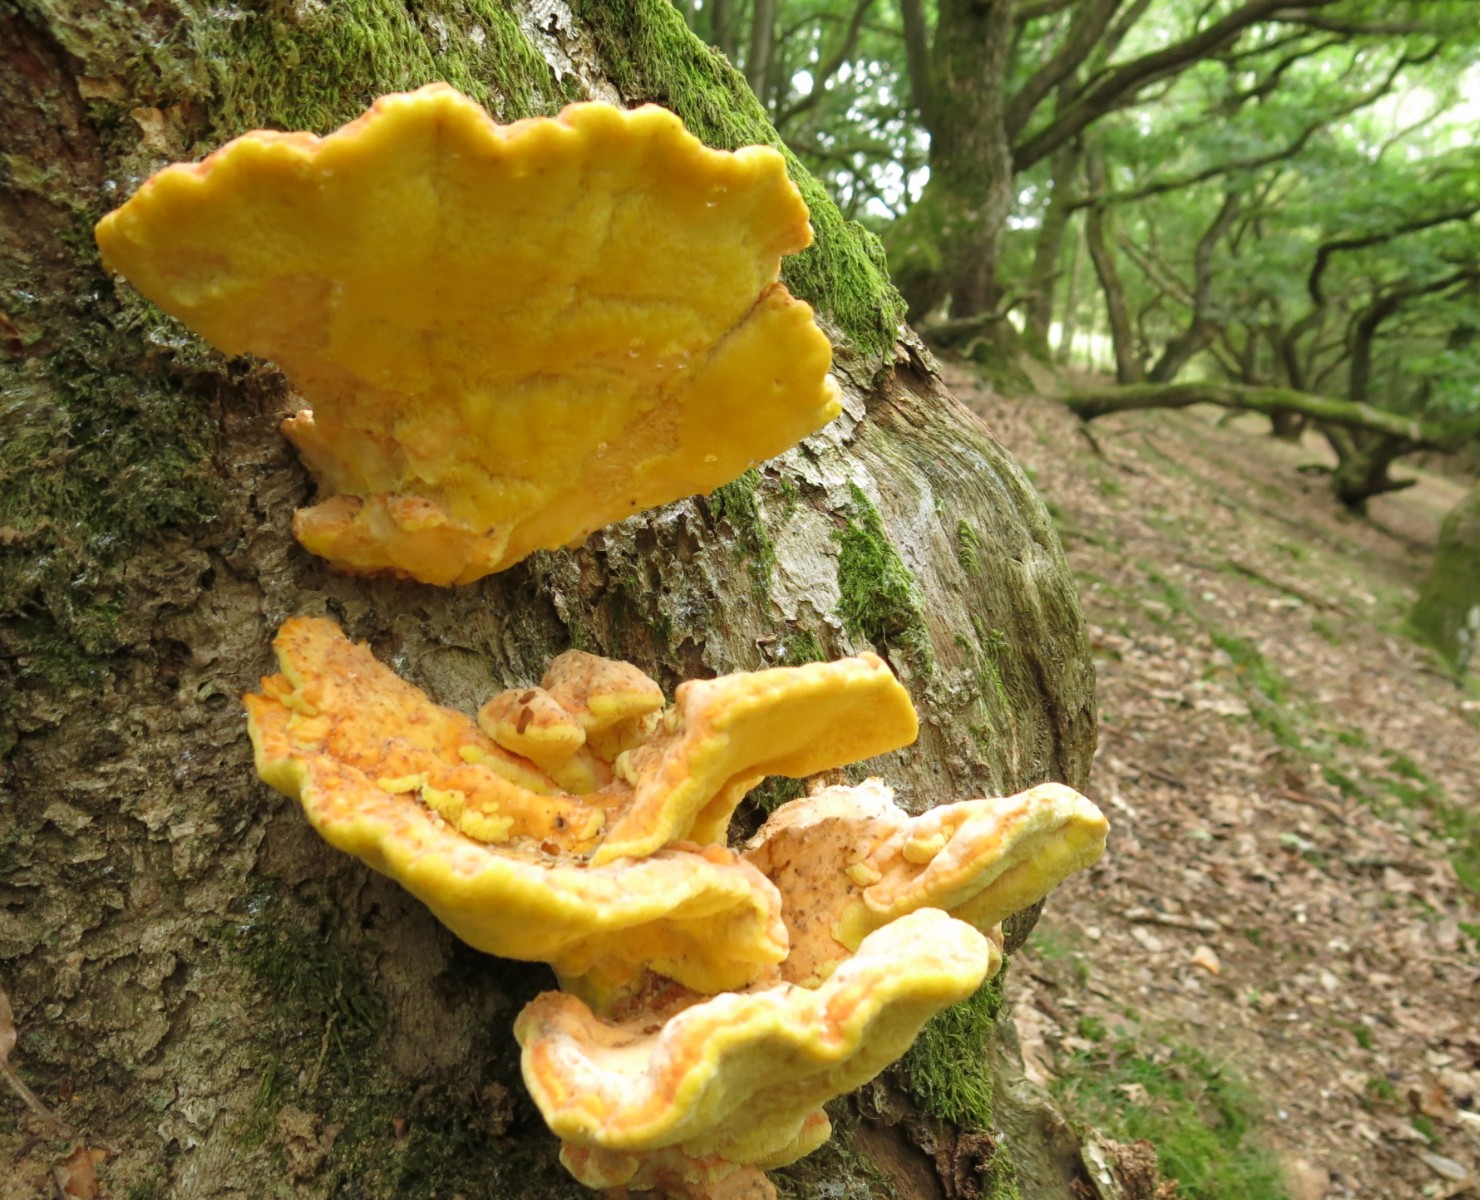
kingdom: Fungi
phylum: Basidiomycota
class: Agaricomycetes
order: Polyporales
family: Laetiporaceae
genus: Laetiporus
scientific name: Laetiporus sulphureus
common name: svovlporesvamp
